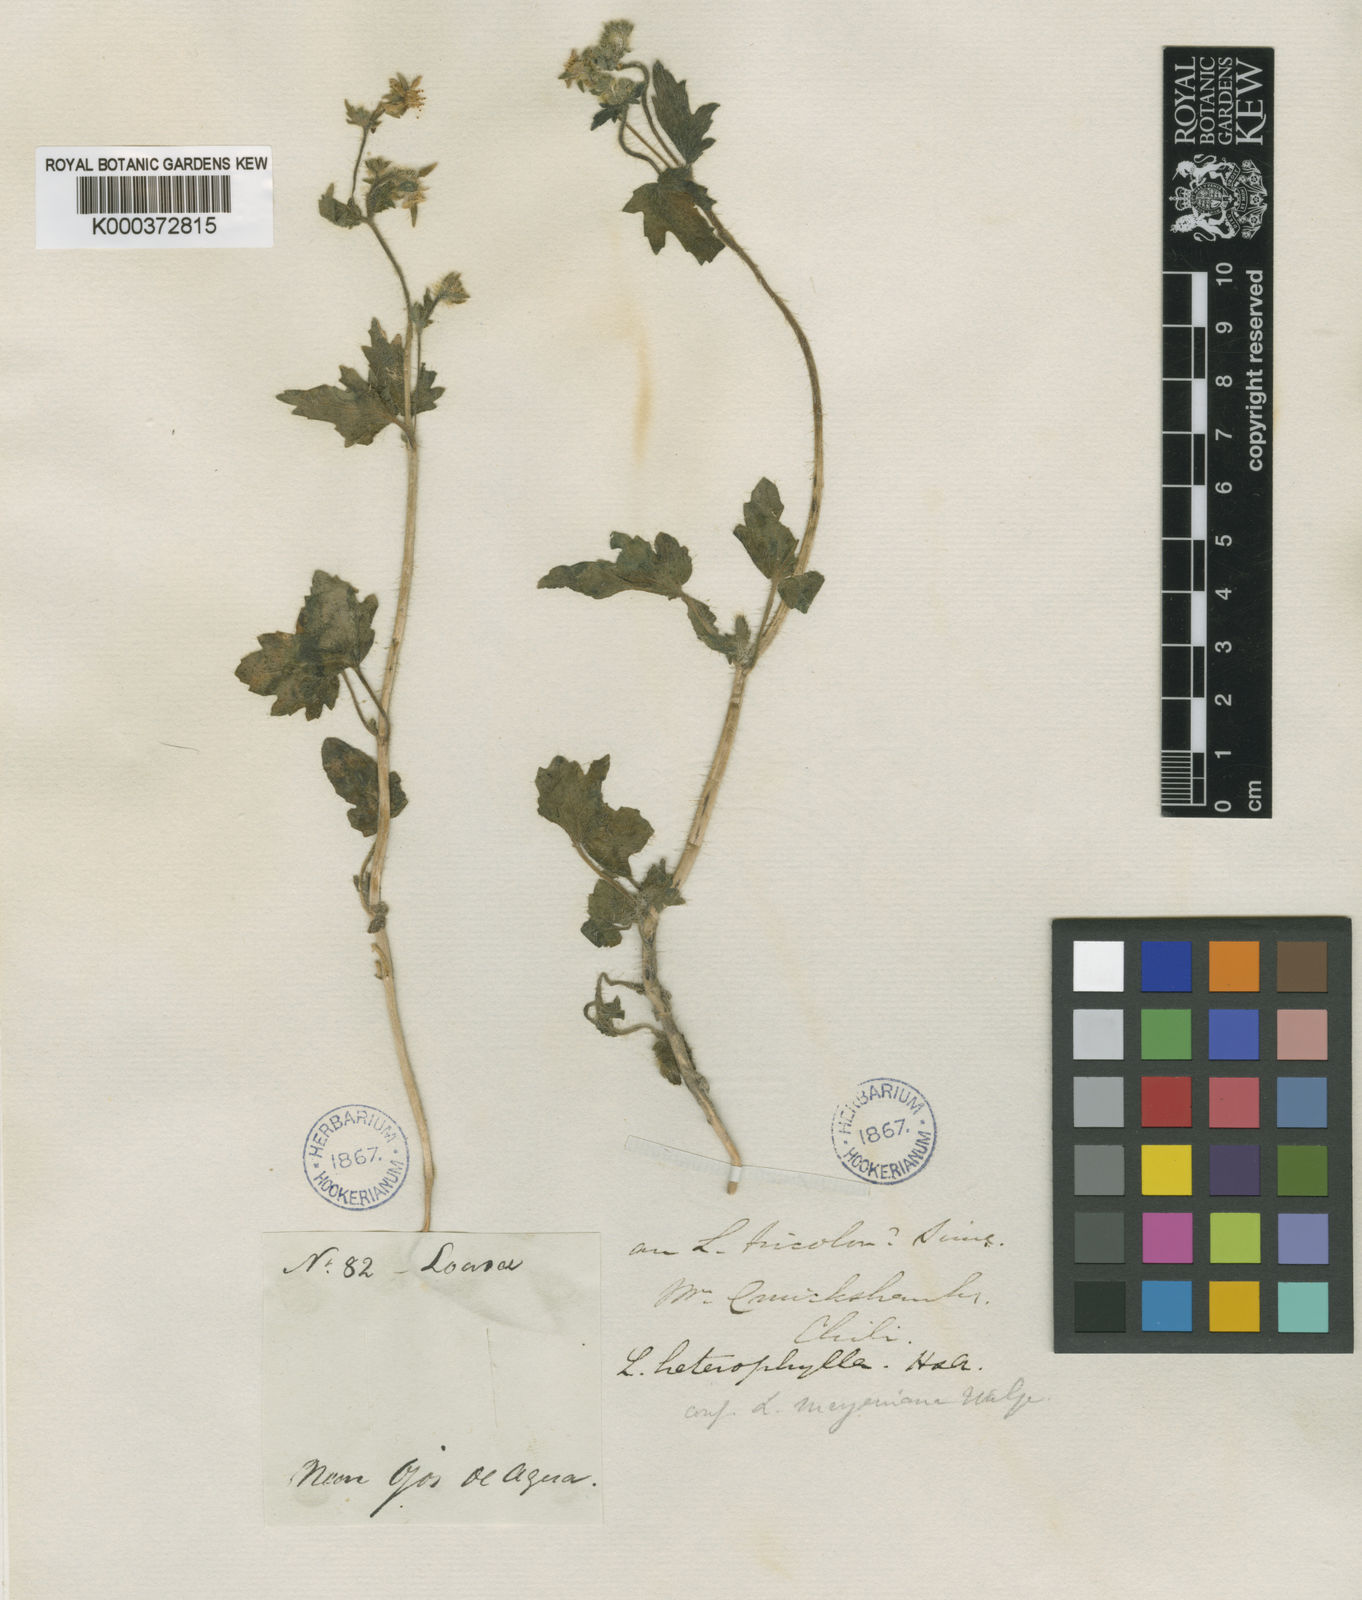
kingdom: Plantae
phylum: Tracheophyta
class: Magnoliopsida
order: Cornales
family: Loasaceae
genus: Loasa
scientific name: Loasa heterophylla
